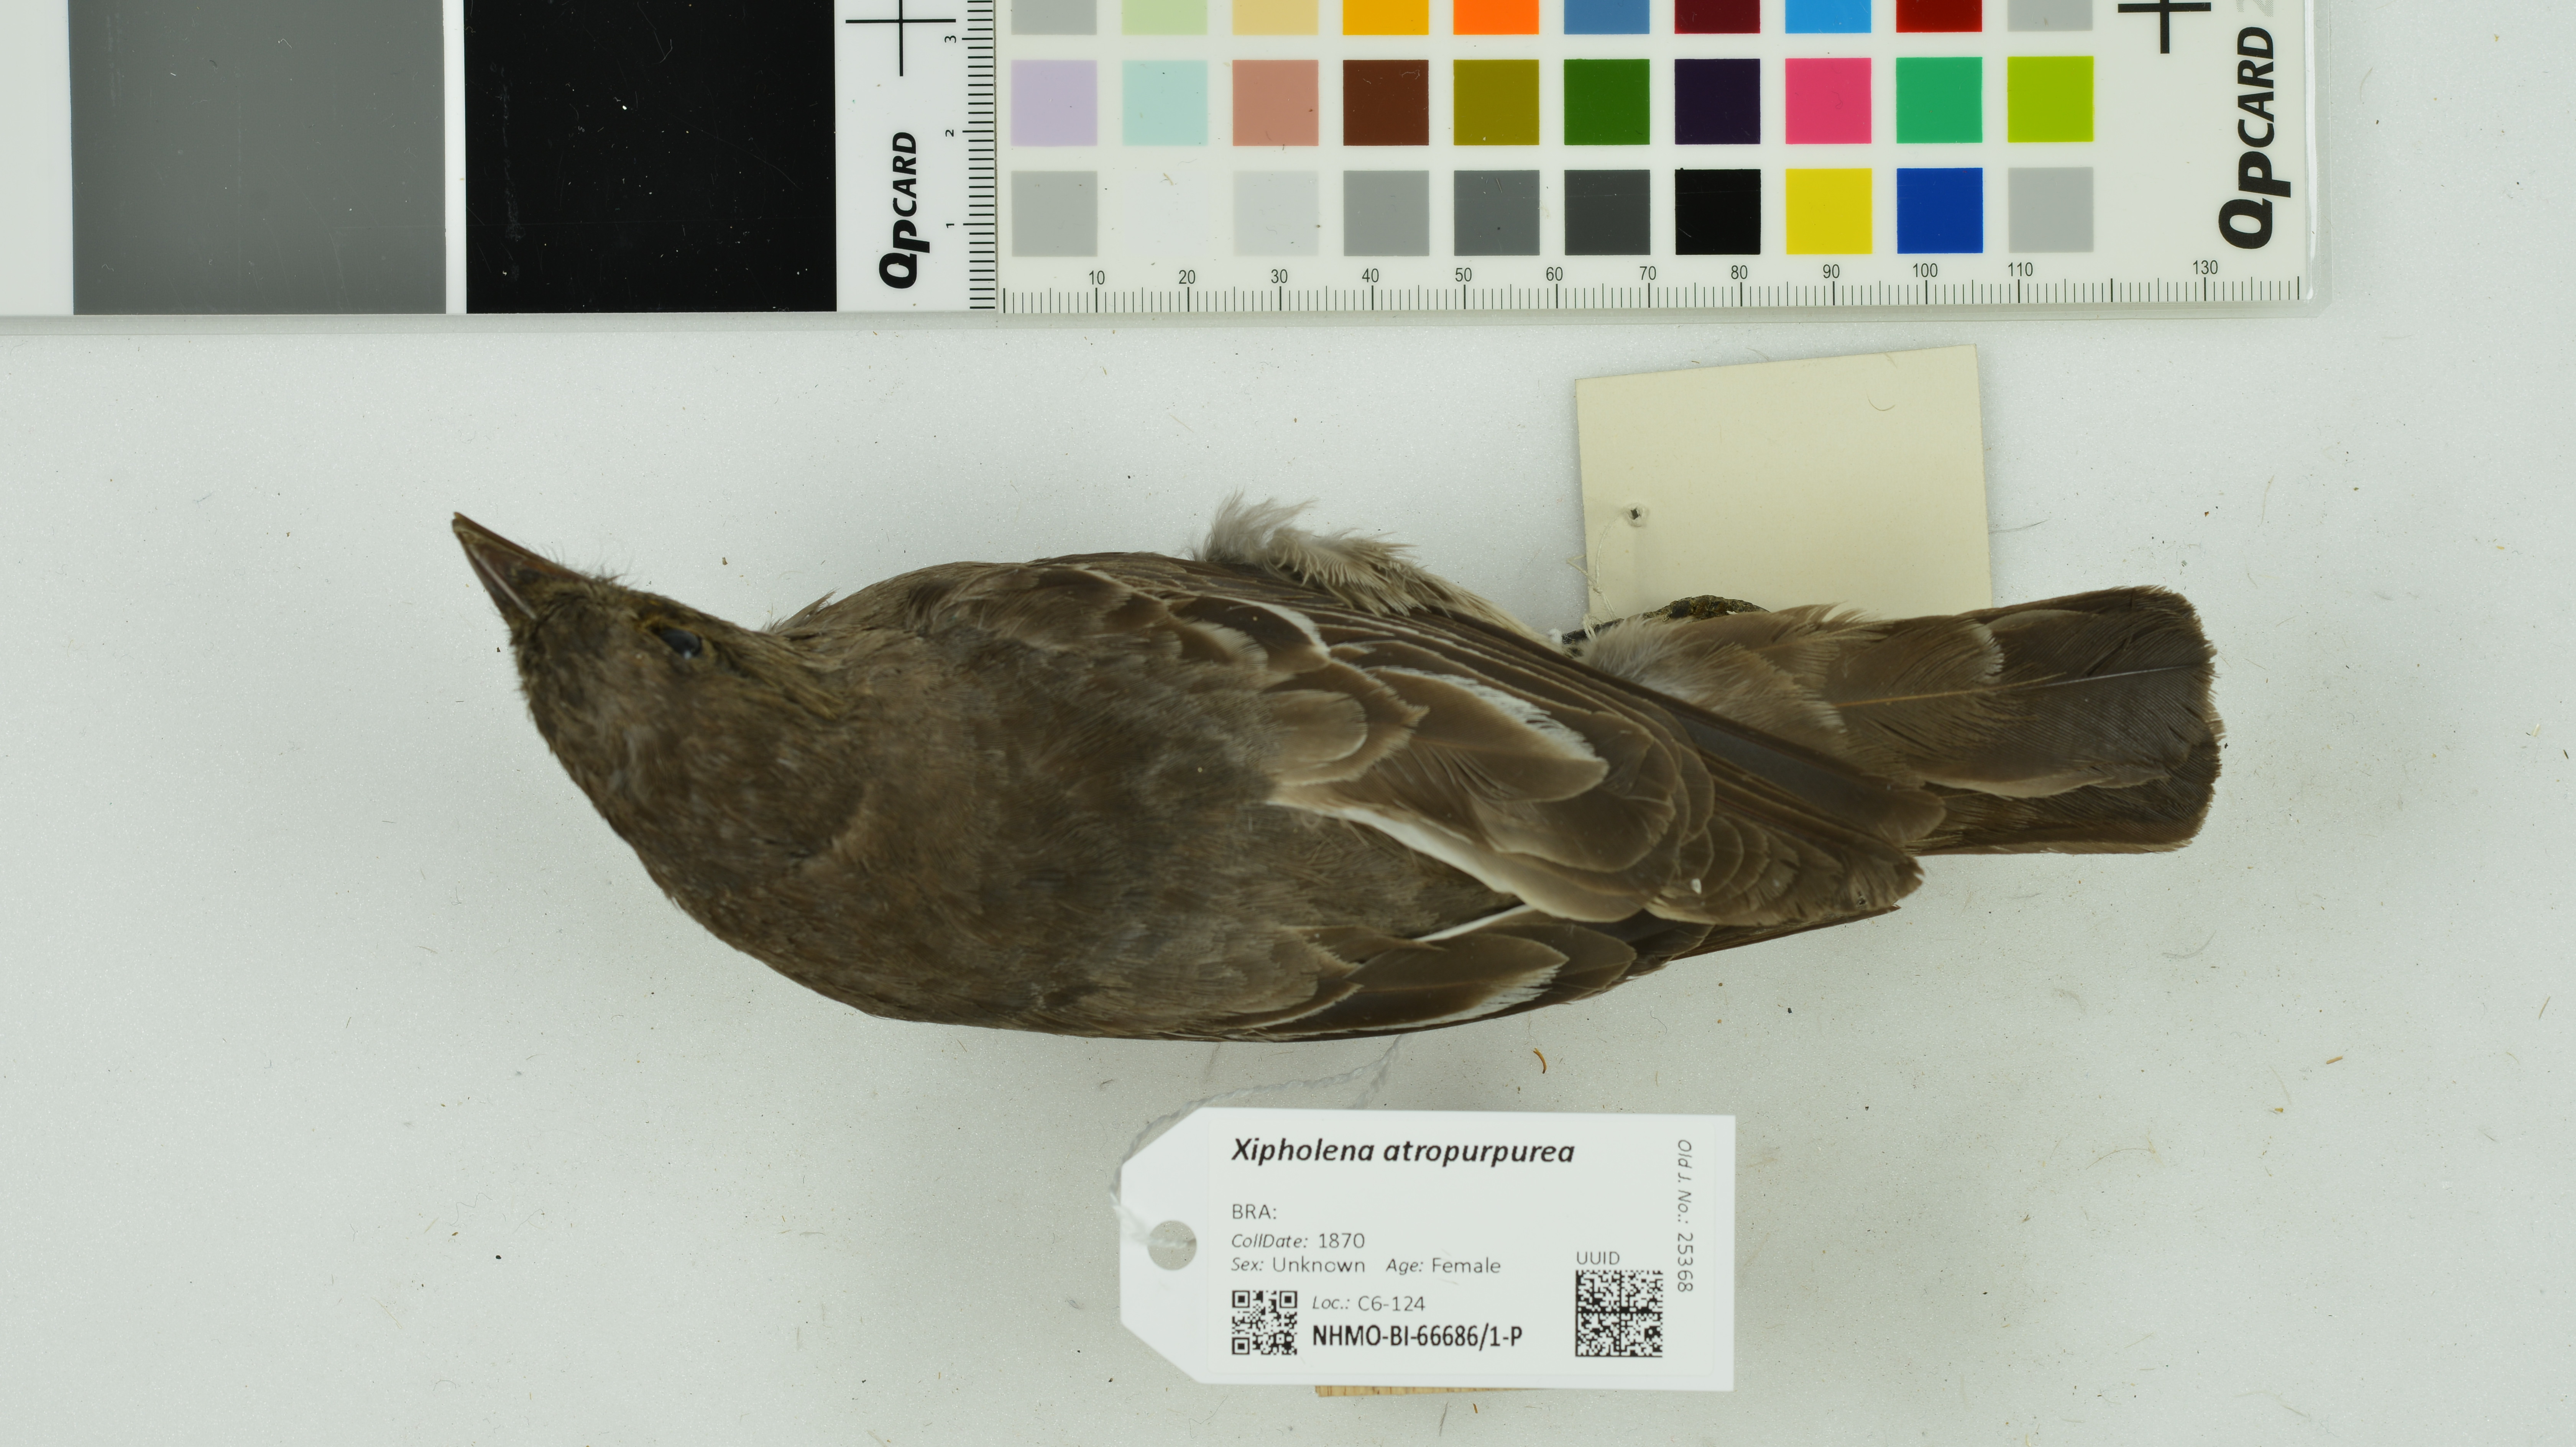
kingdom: Animalia
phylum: Chordata
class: Aves
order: Passeriformes
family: Cotingidae
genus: Xipholena
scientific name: Xipholena atropurpurea
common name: White-winged cotinga
